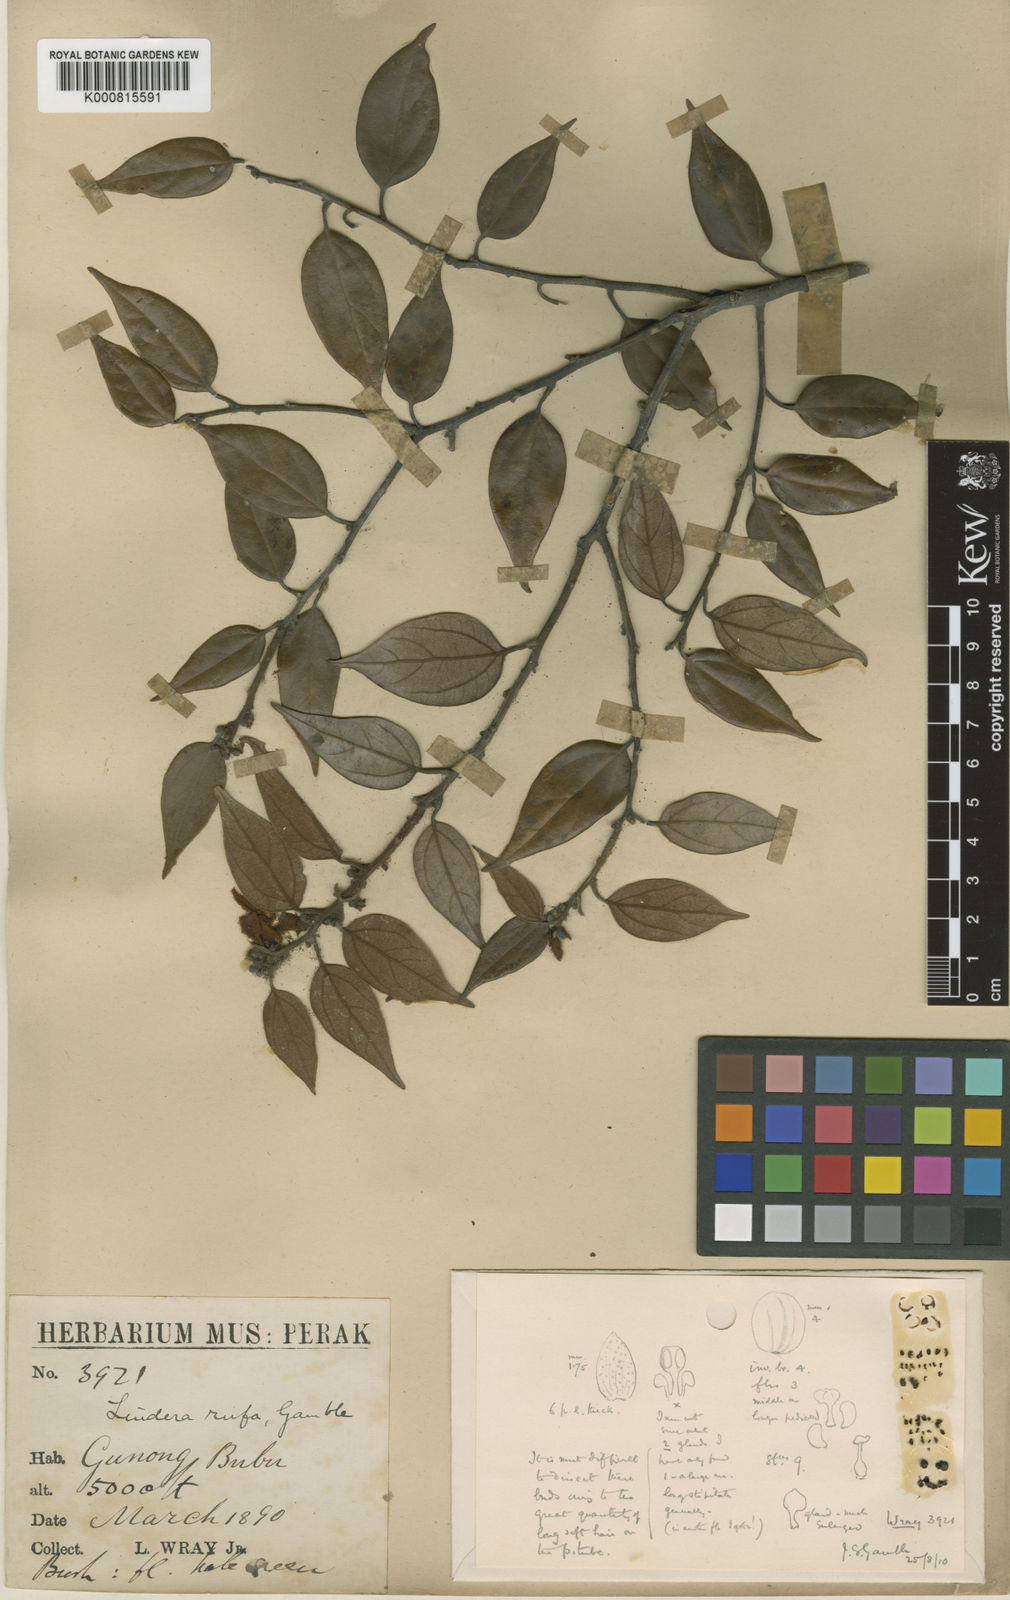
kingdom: Plantae
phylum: Tracheophyta
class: Magnoliopsida
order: Laurales
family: Lauraceae
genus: Lindera
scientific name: Lindera rufa
